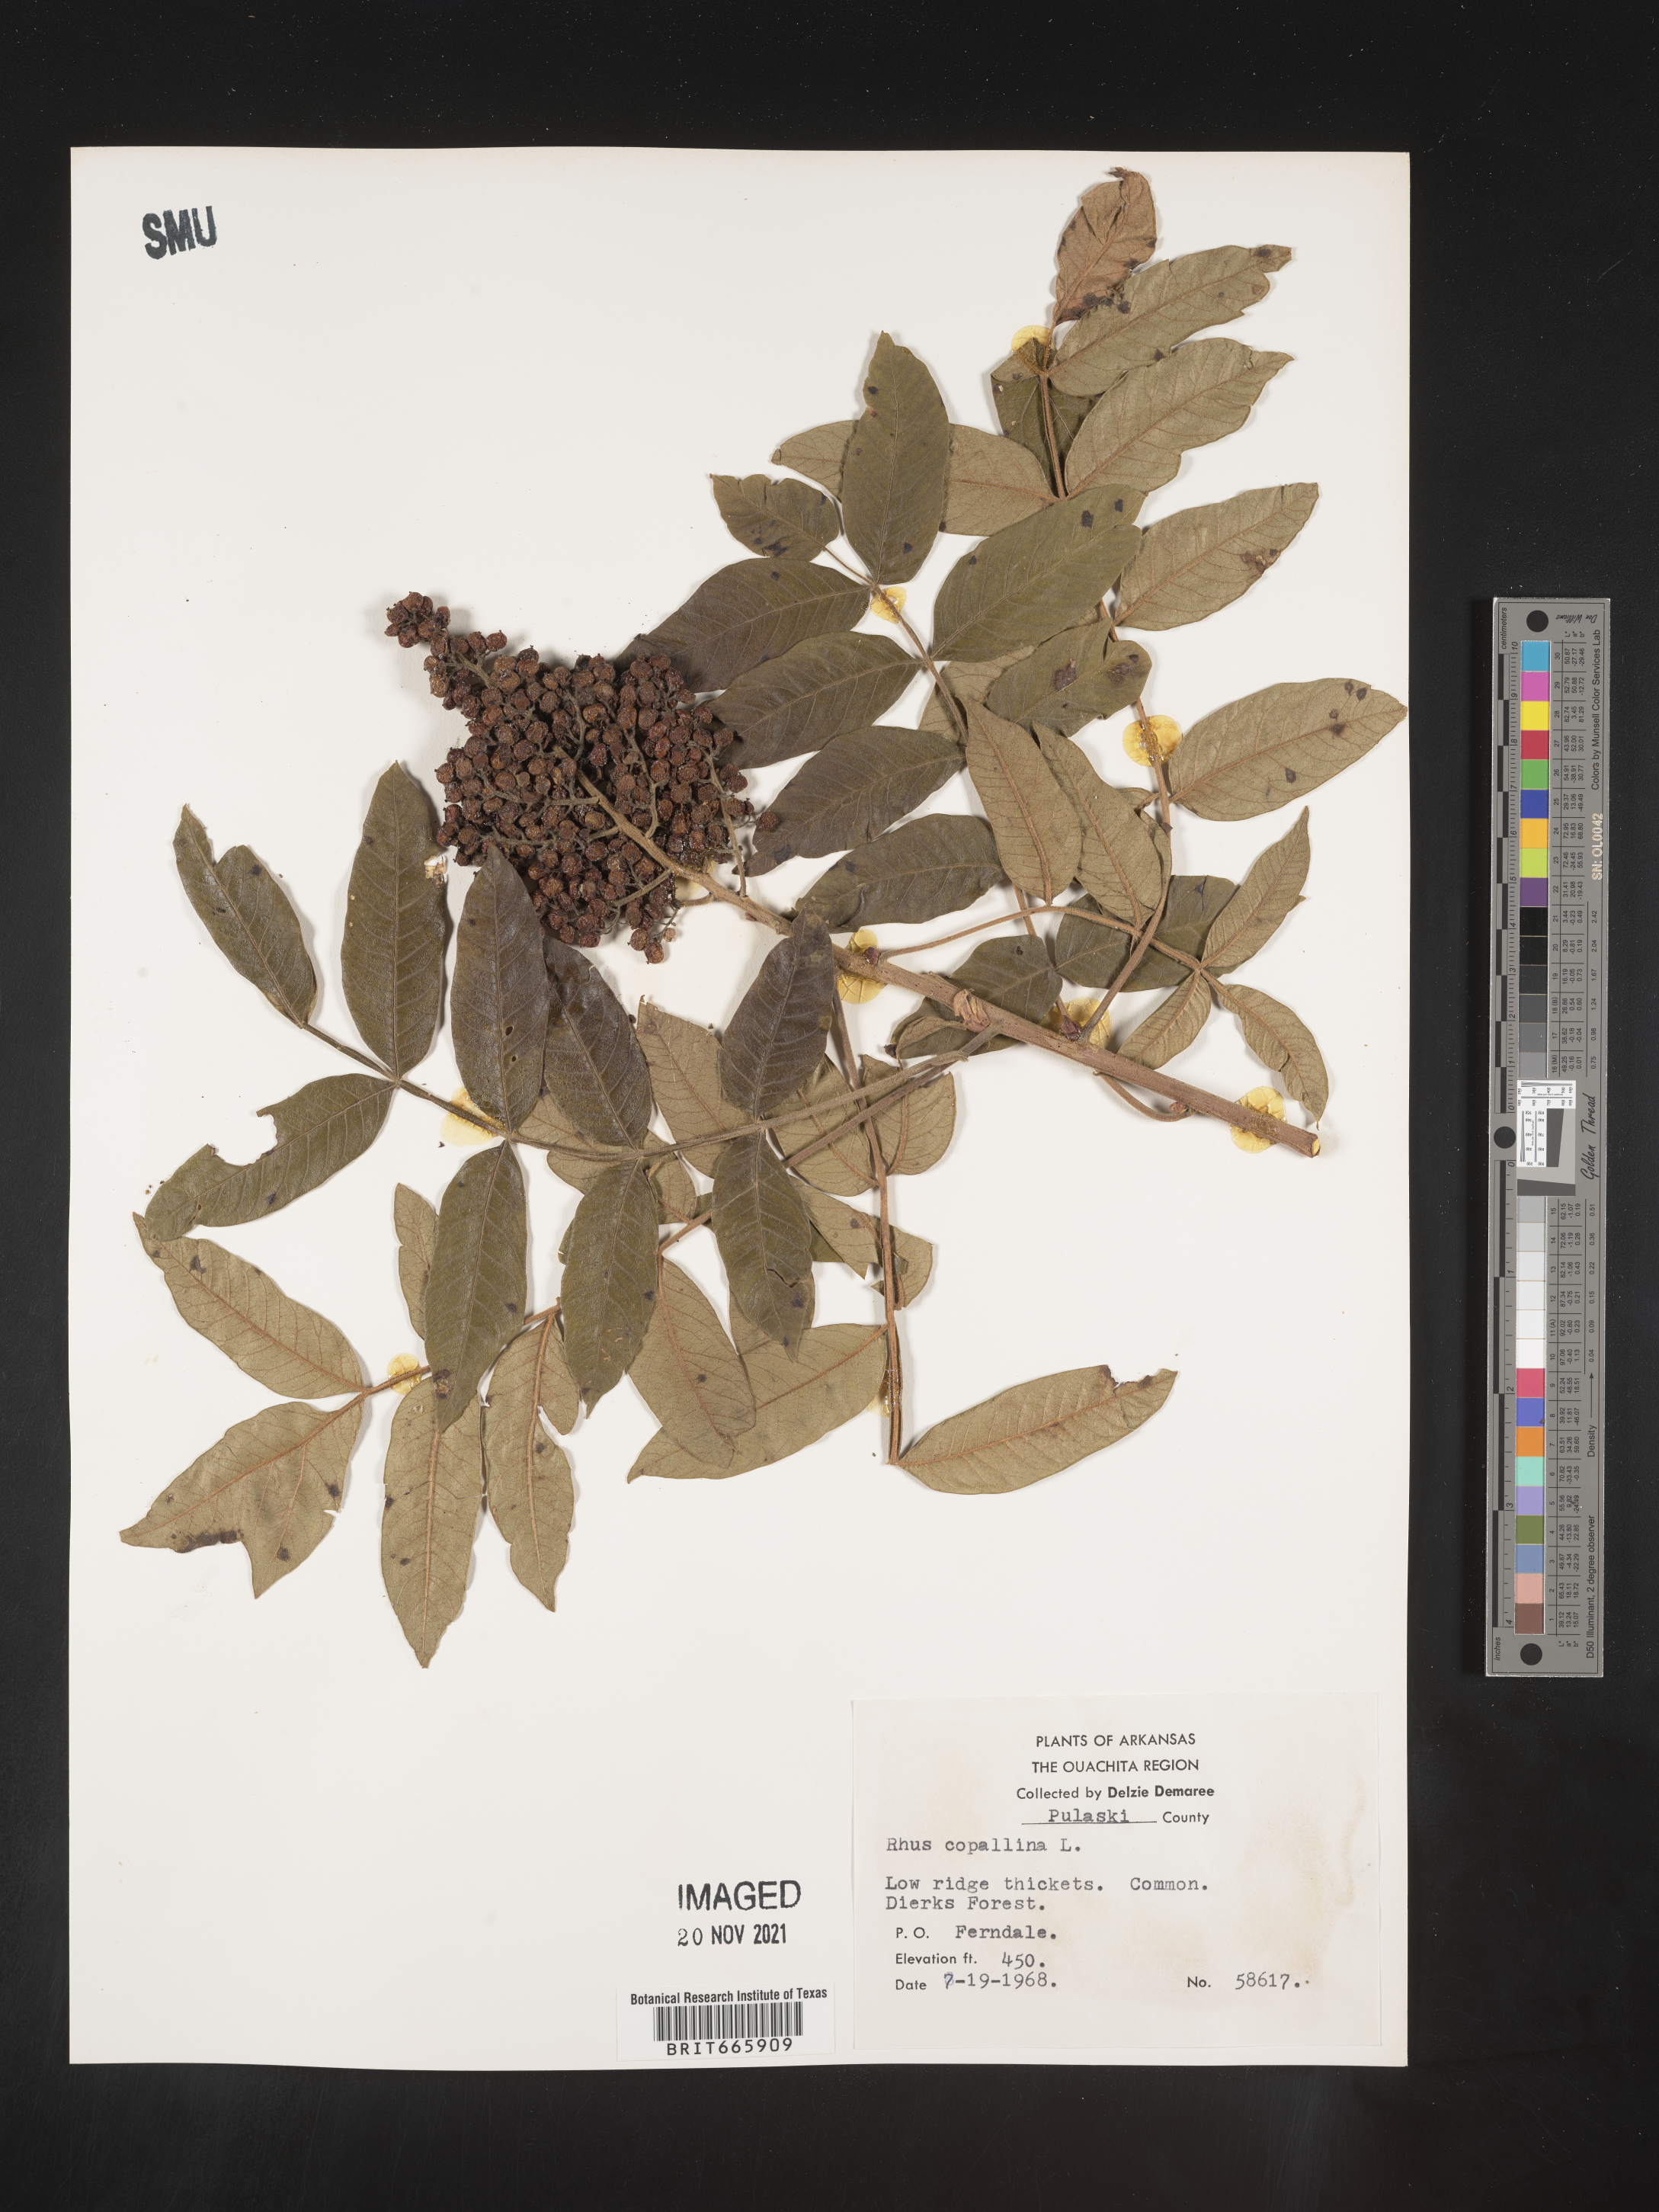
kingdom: Plantae
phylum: Tracheophyta
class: Magnoliopsida
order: Sapindales
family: Anacardiaceae
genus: Rhus
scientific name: Rhus copallina
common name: Shining sumac
